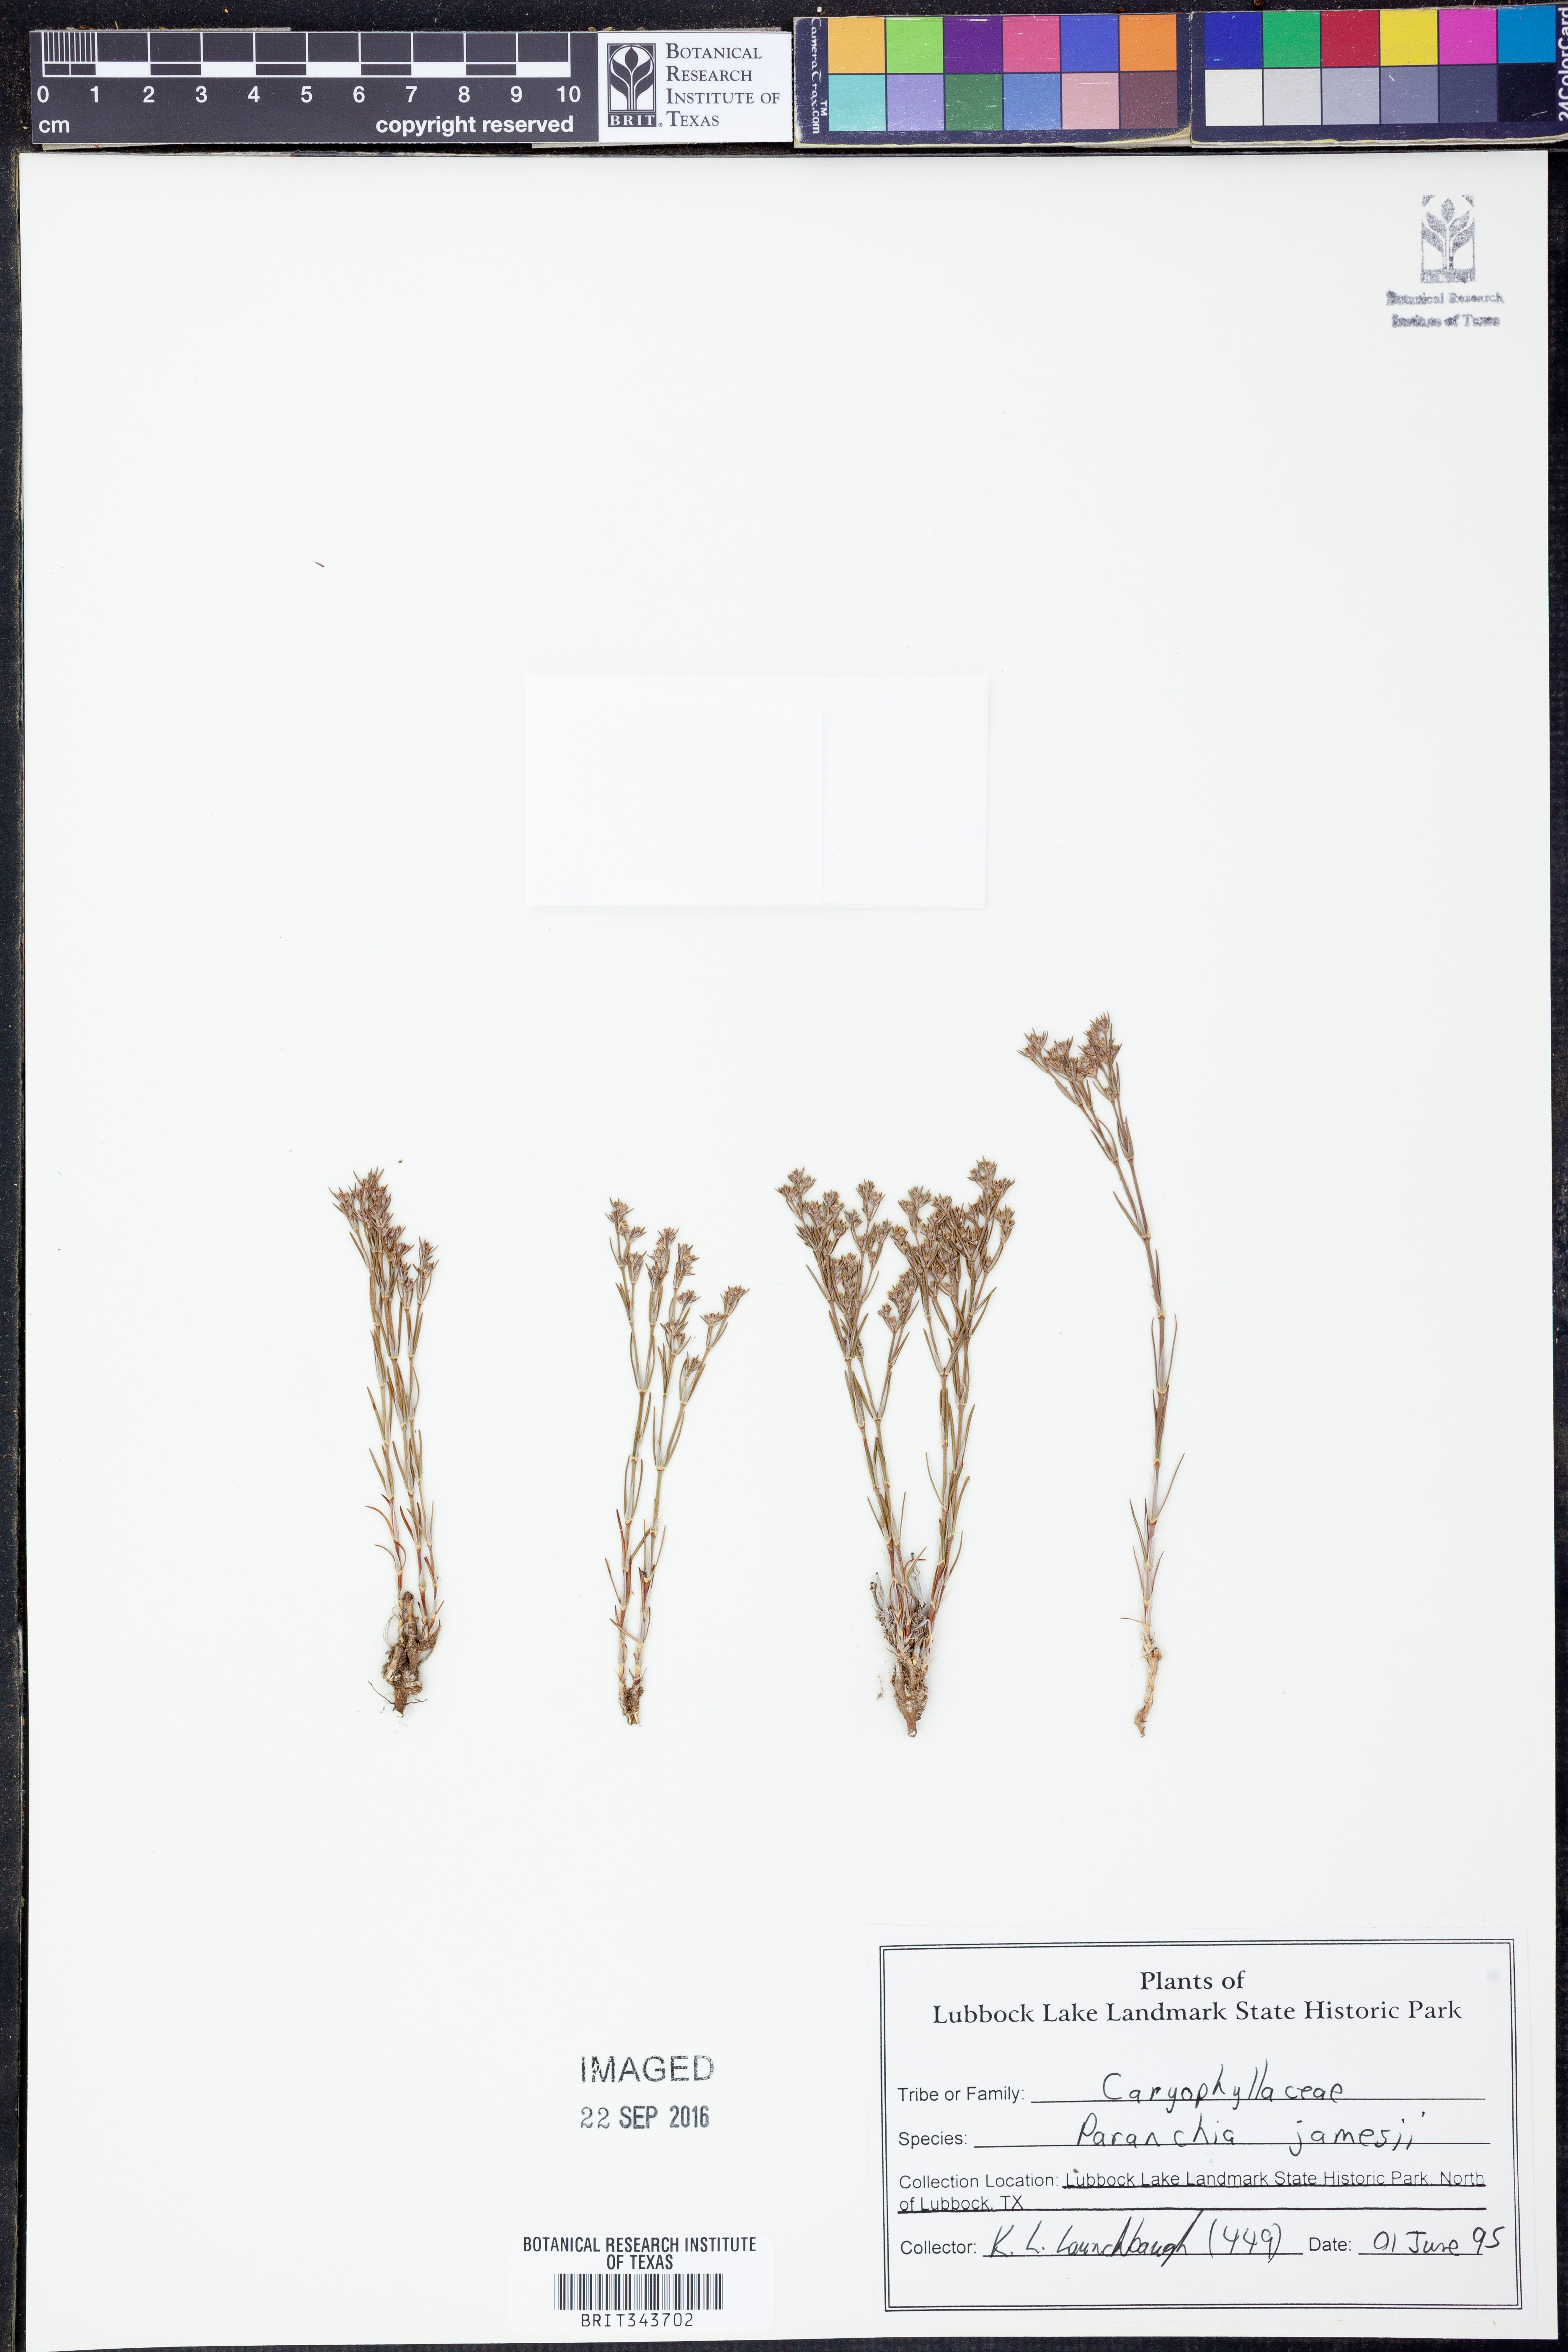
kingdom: Plantae
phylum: Tracheophyta
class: Magnoliopsida
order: Caryophyllales
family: Caryophyllaceae
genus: Paronychia
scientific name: Paronychia jamesii
